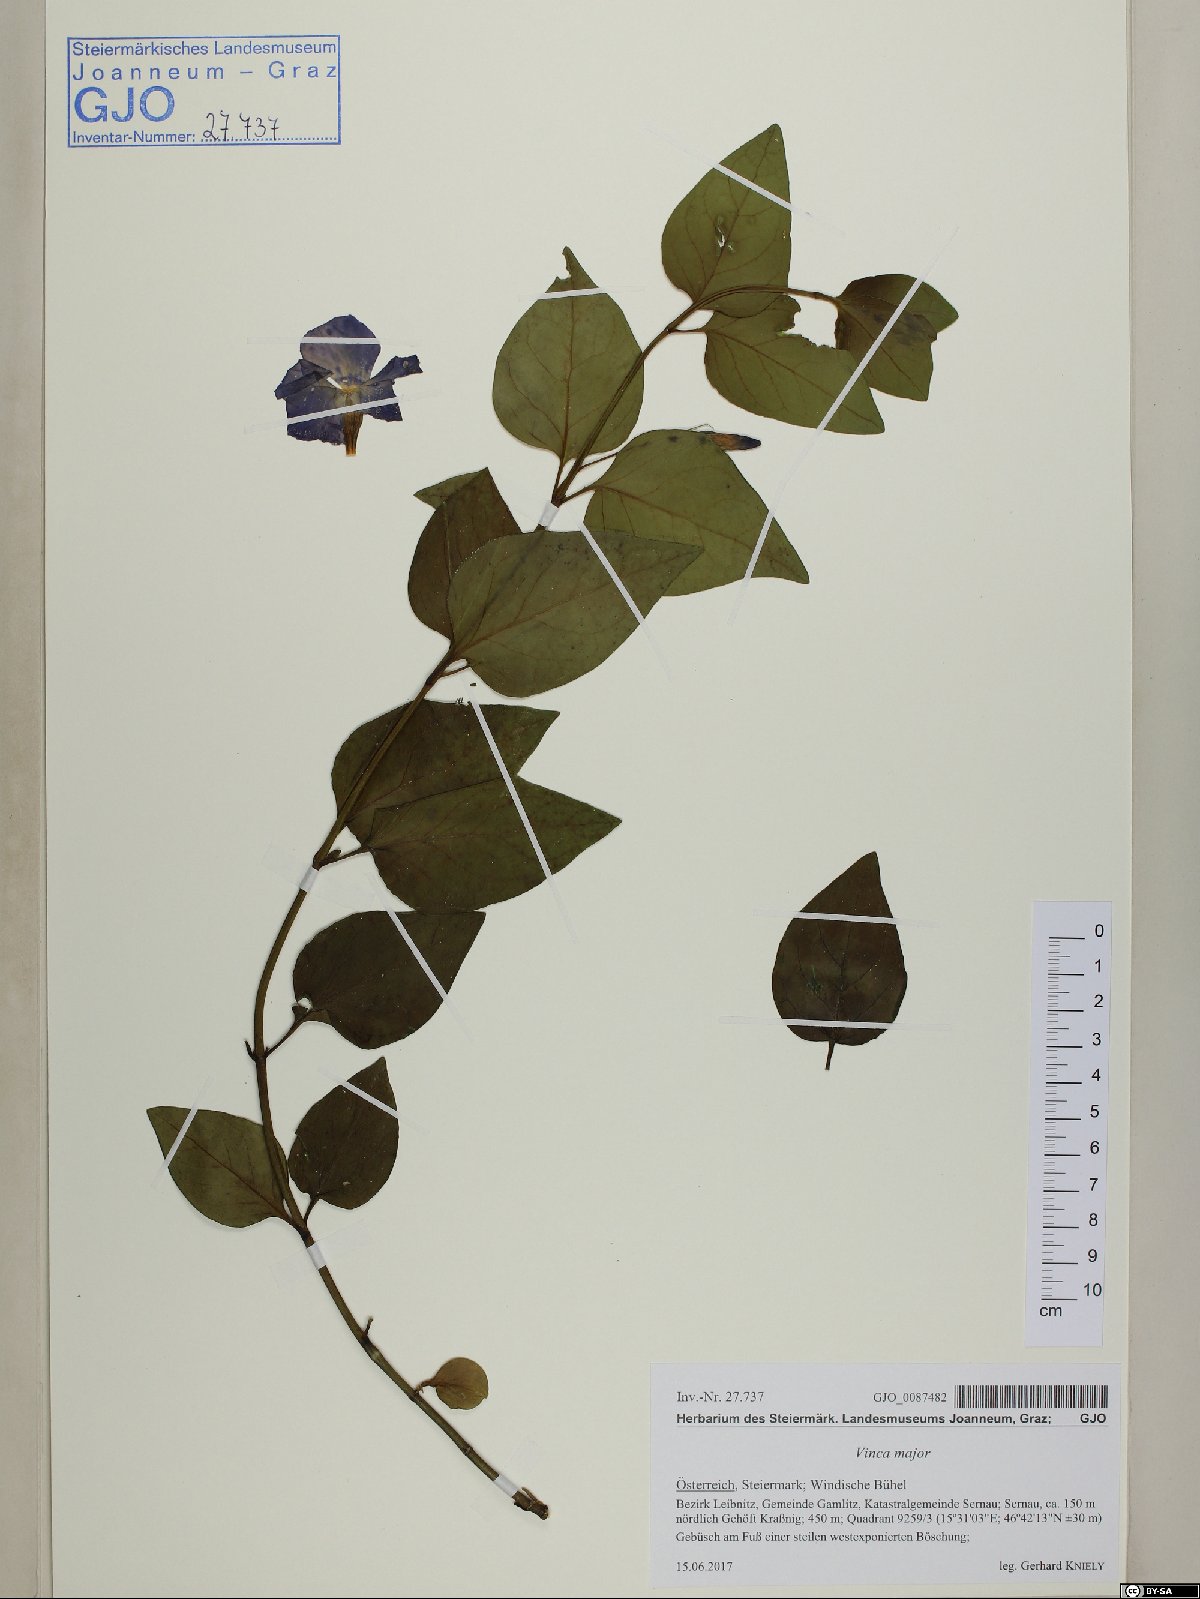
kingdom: Plantae
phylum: Tracheophyta
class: Magnoliopsida
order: Gentianales
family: Apocynaceae
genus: Vinca
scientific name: Vinca major
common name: Greater periwinkle
